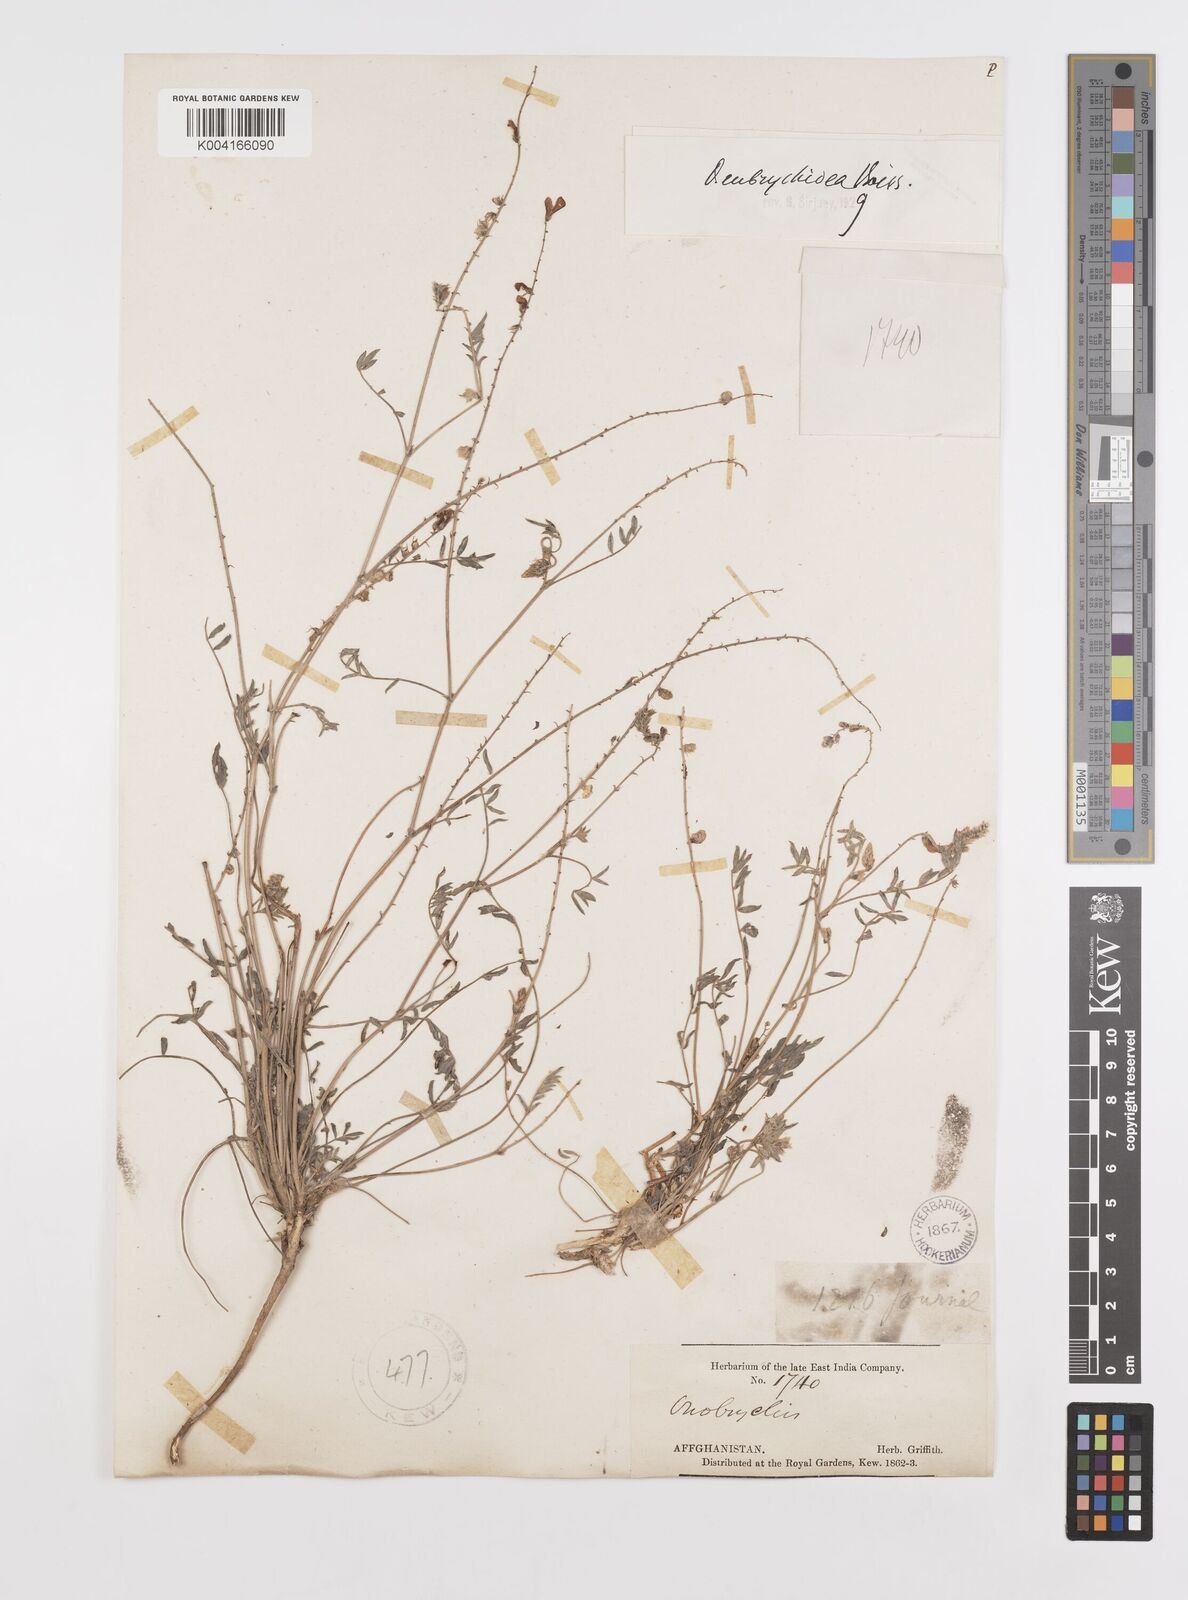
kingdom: Plantae
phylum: Tracheophyta
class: Magnoliopsida
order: Fabales
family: Fabaceae
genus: Onobrychis
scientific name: Onobrychis eubrychidea
